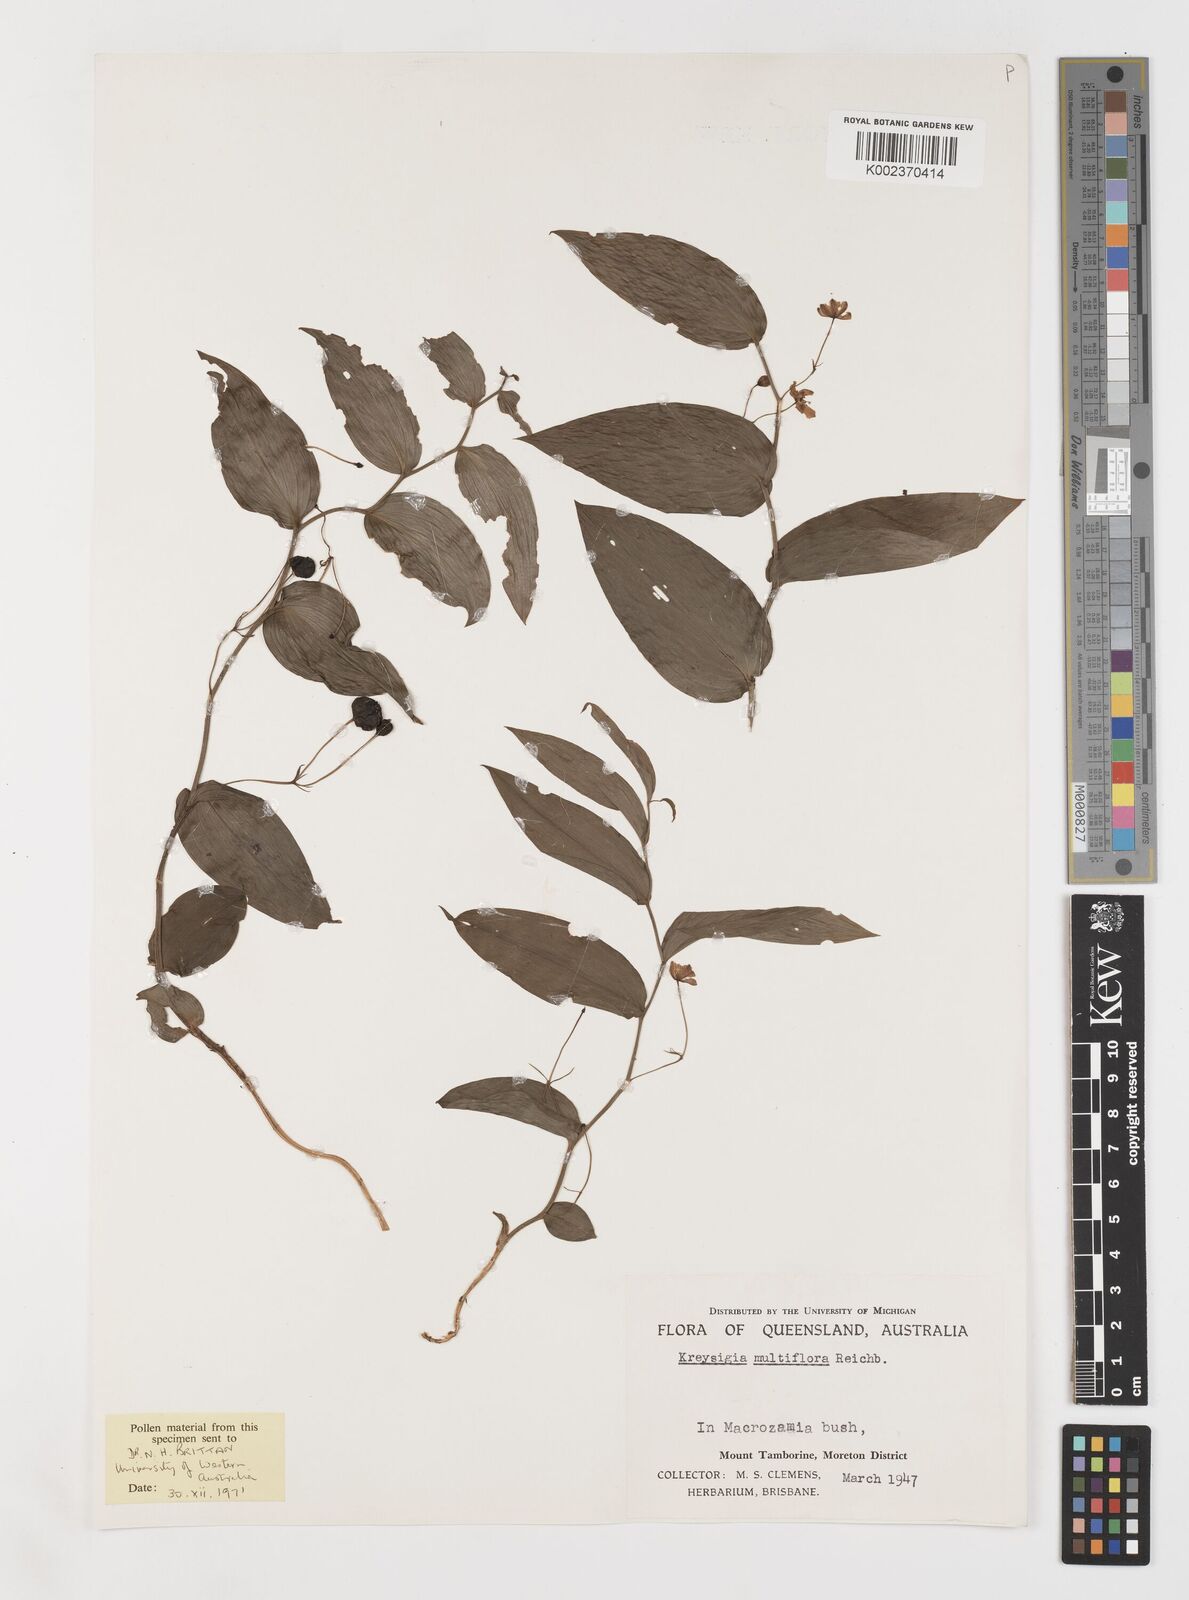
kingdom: Plantae
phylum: Tracheophyta
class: Liliopsida
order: Liliales
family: Colchicaceae
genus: Tripladenia
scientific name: Tripladenia
